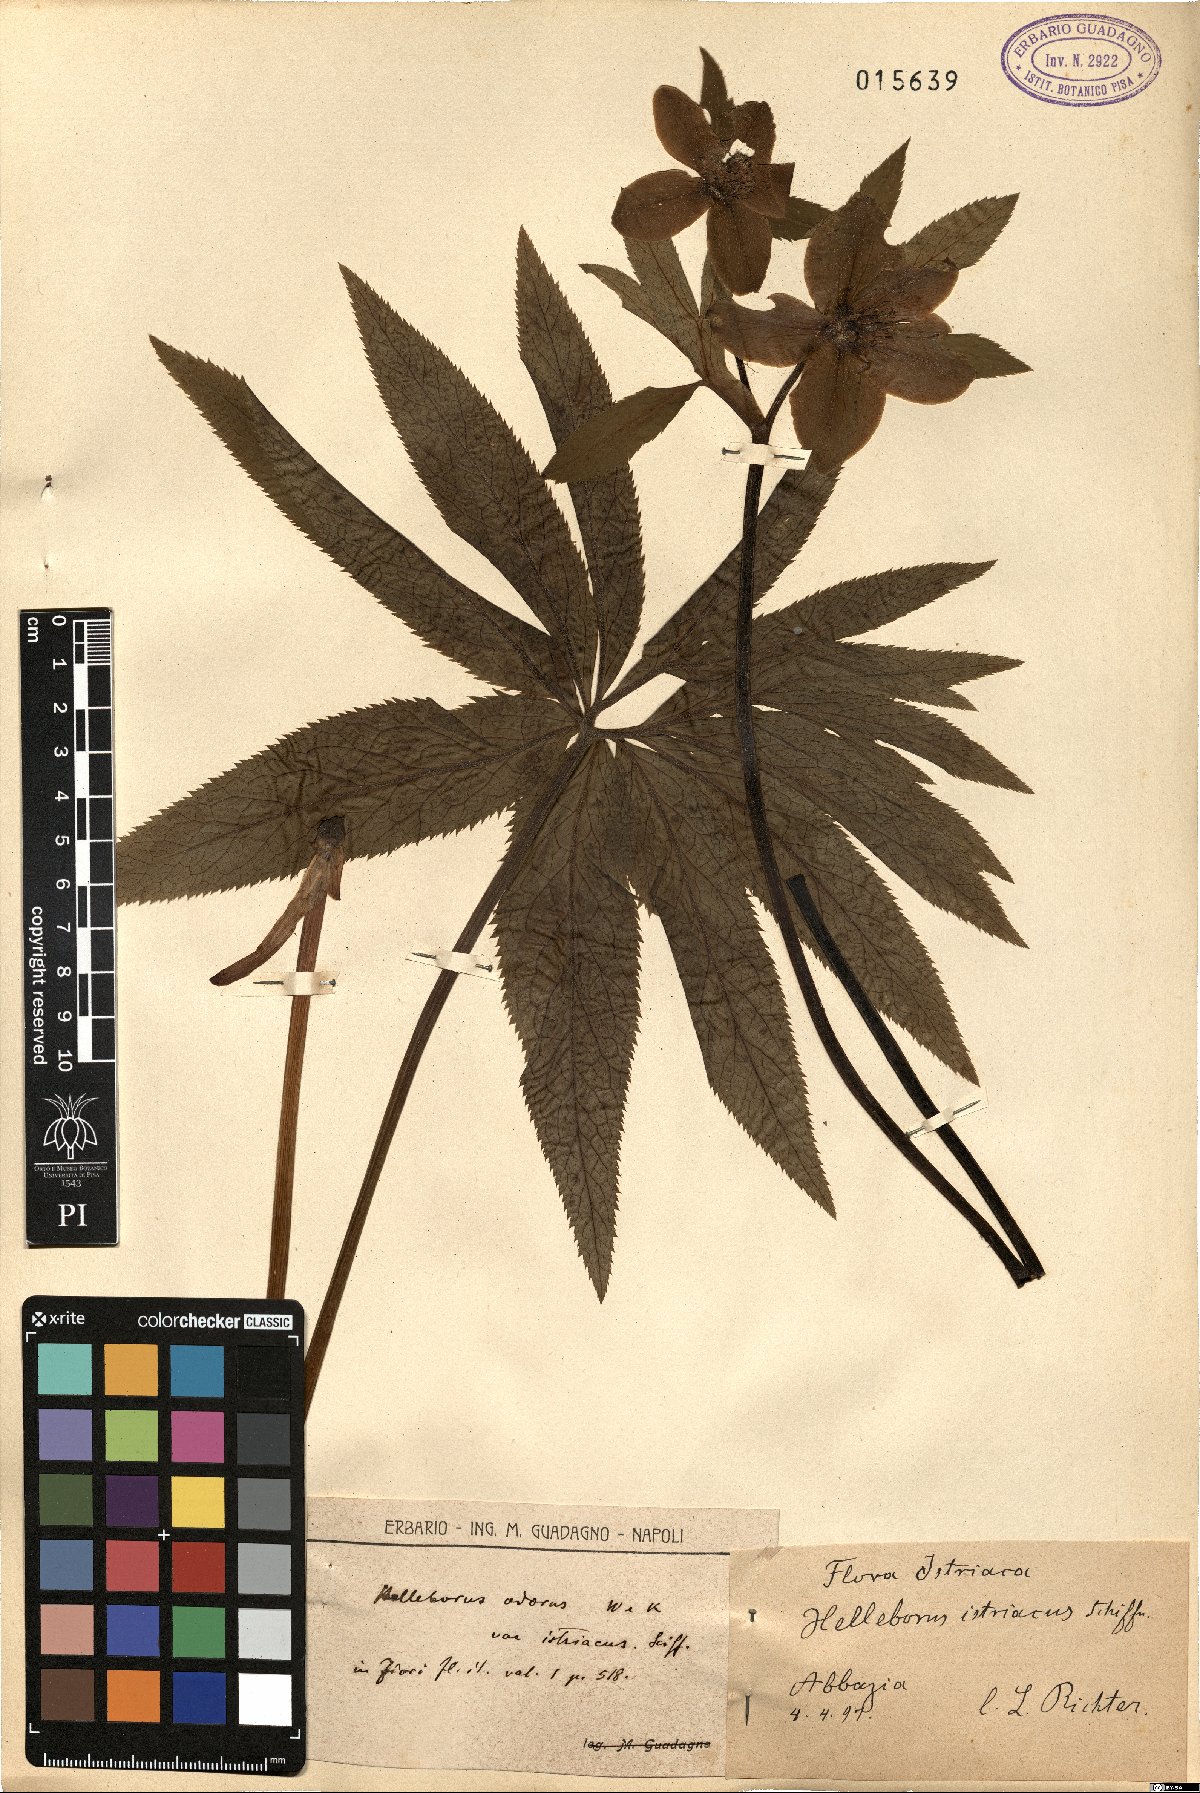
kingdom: Plantae
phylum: Tracheophyta
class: Magnoliopsida
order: Ranunculales
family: Ranunculaceae
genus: Helleborus
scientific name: Helleborus bocconei
